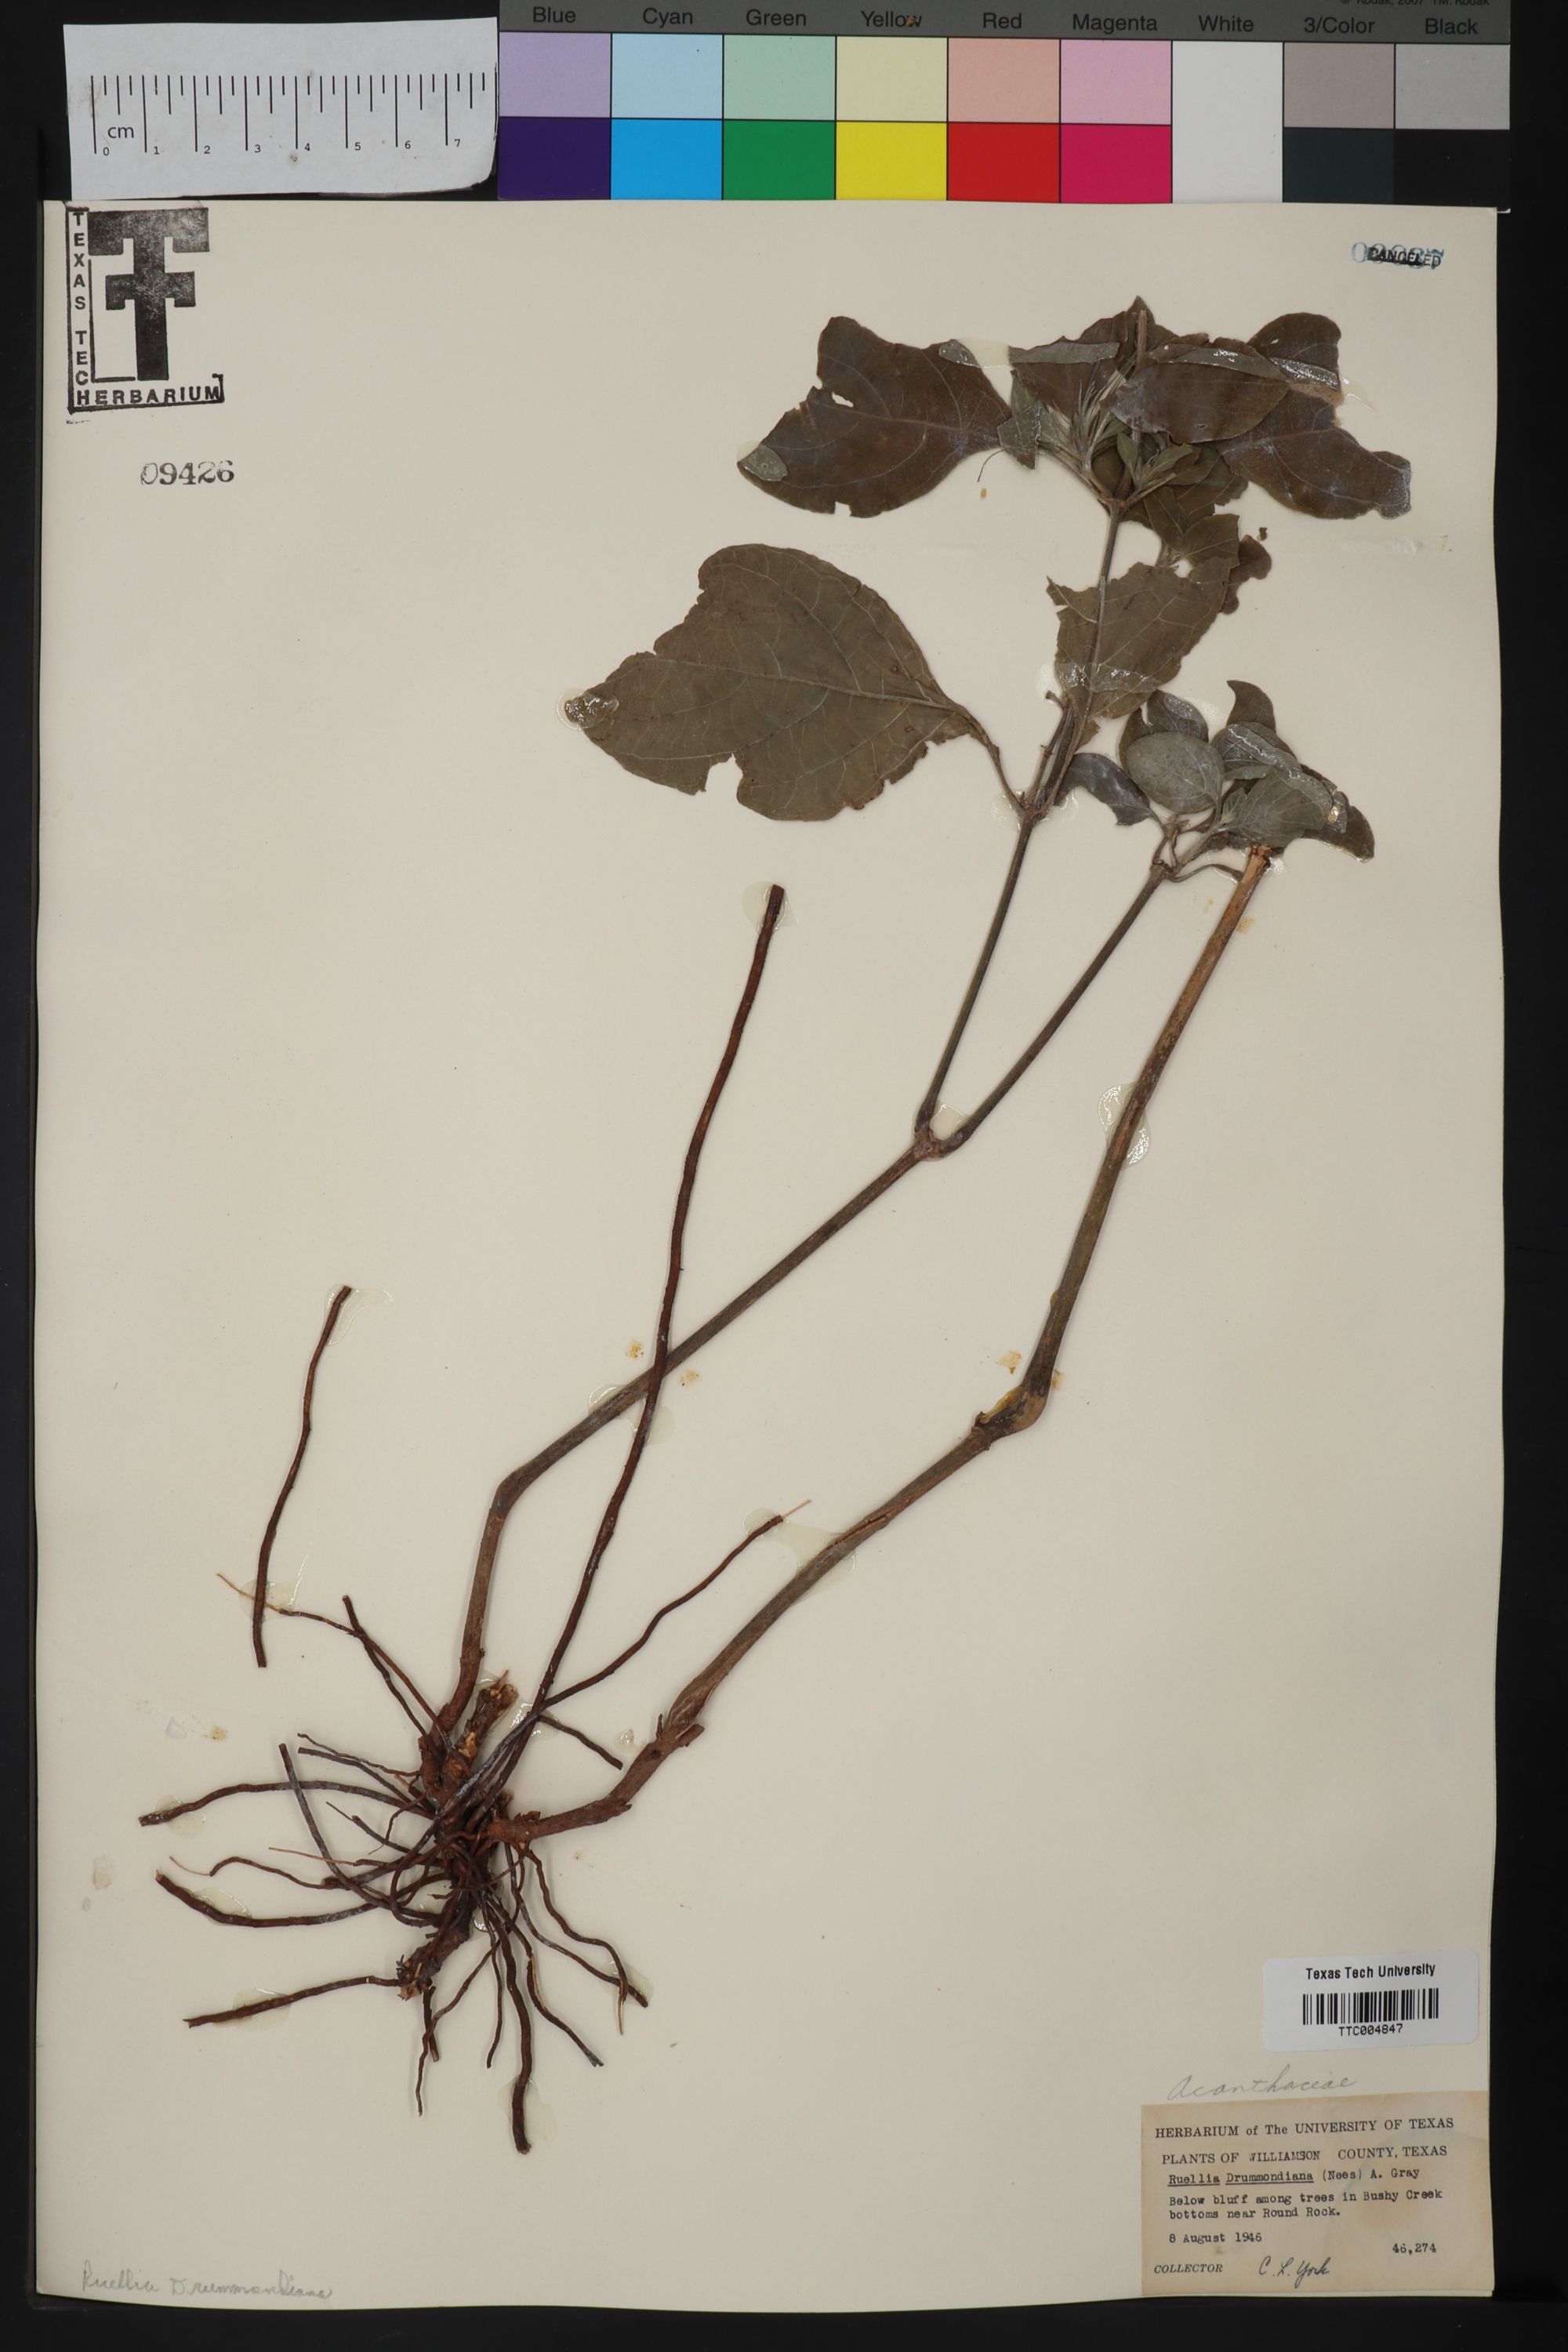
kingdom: Plantae
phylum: Tracheophyta
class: Magnoliopsida
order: Lamiales
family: Acanthaceae
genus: Ruellia
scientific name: Ruellia drummondiana
